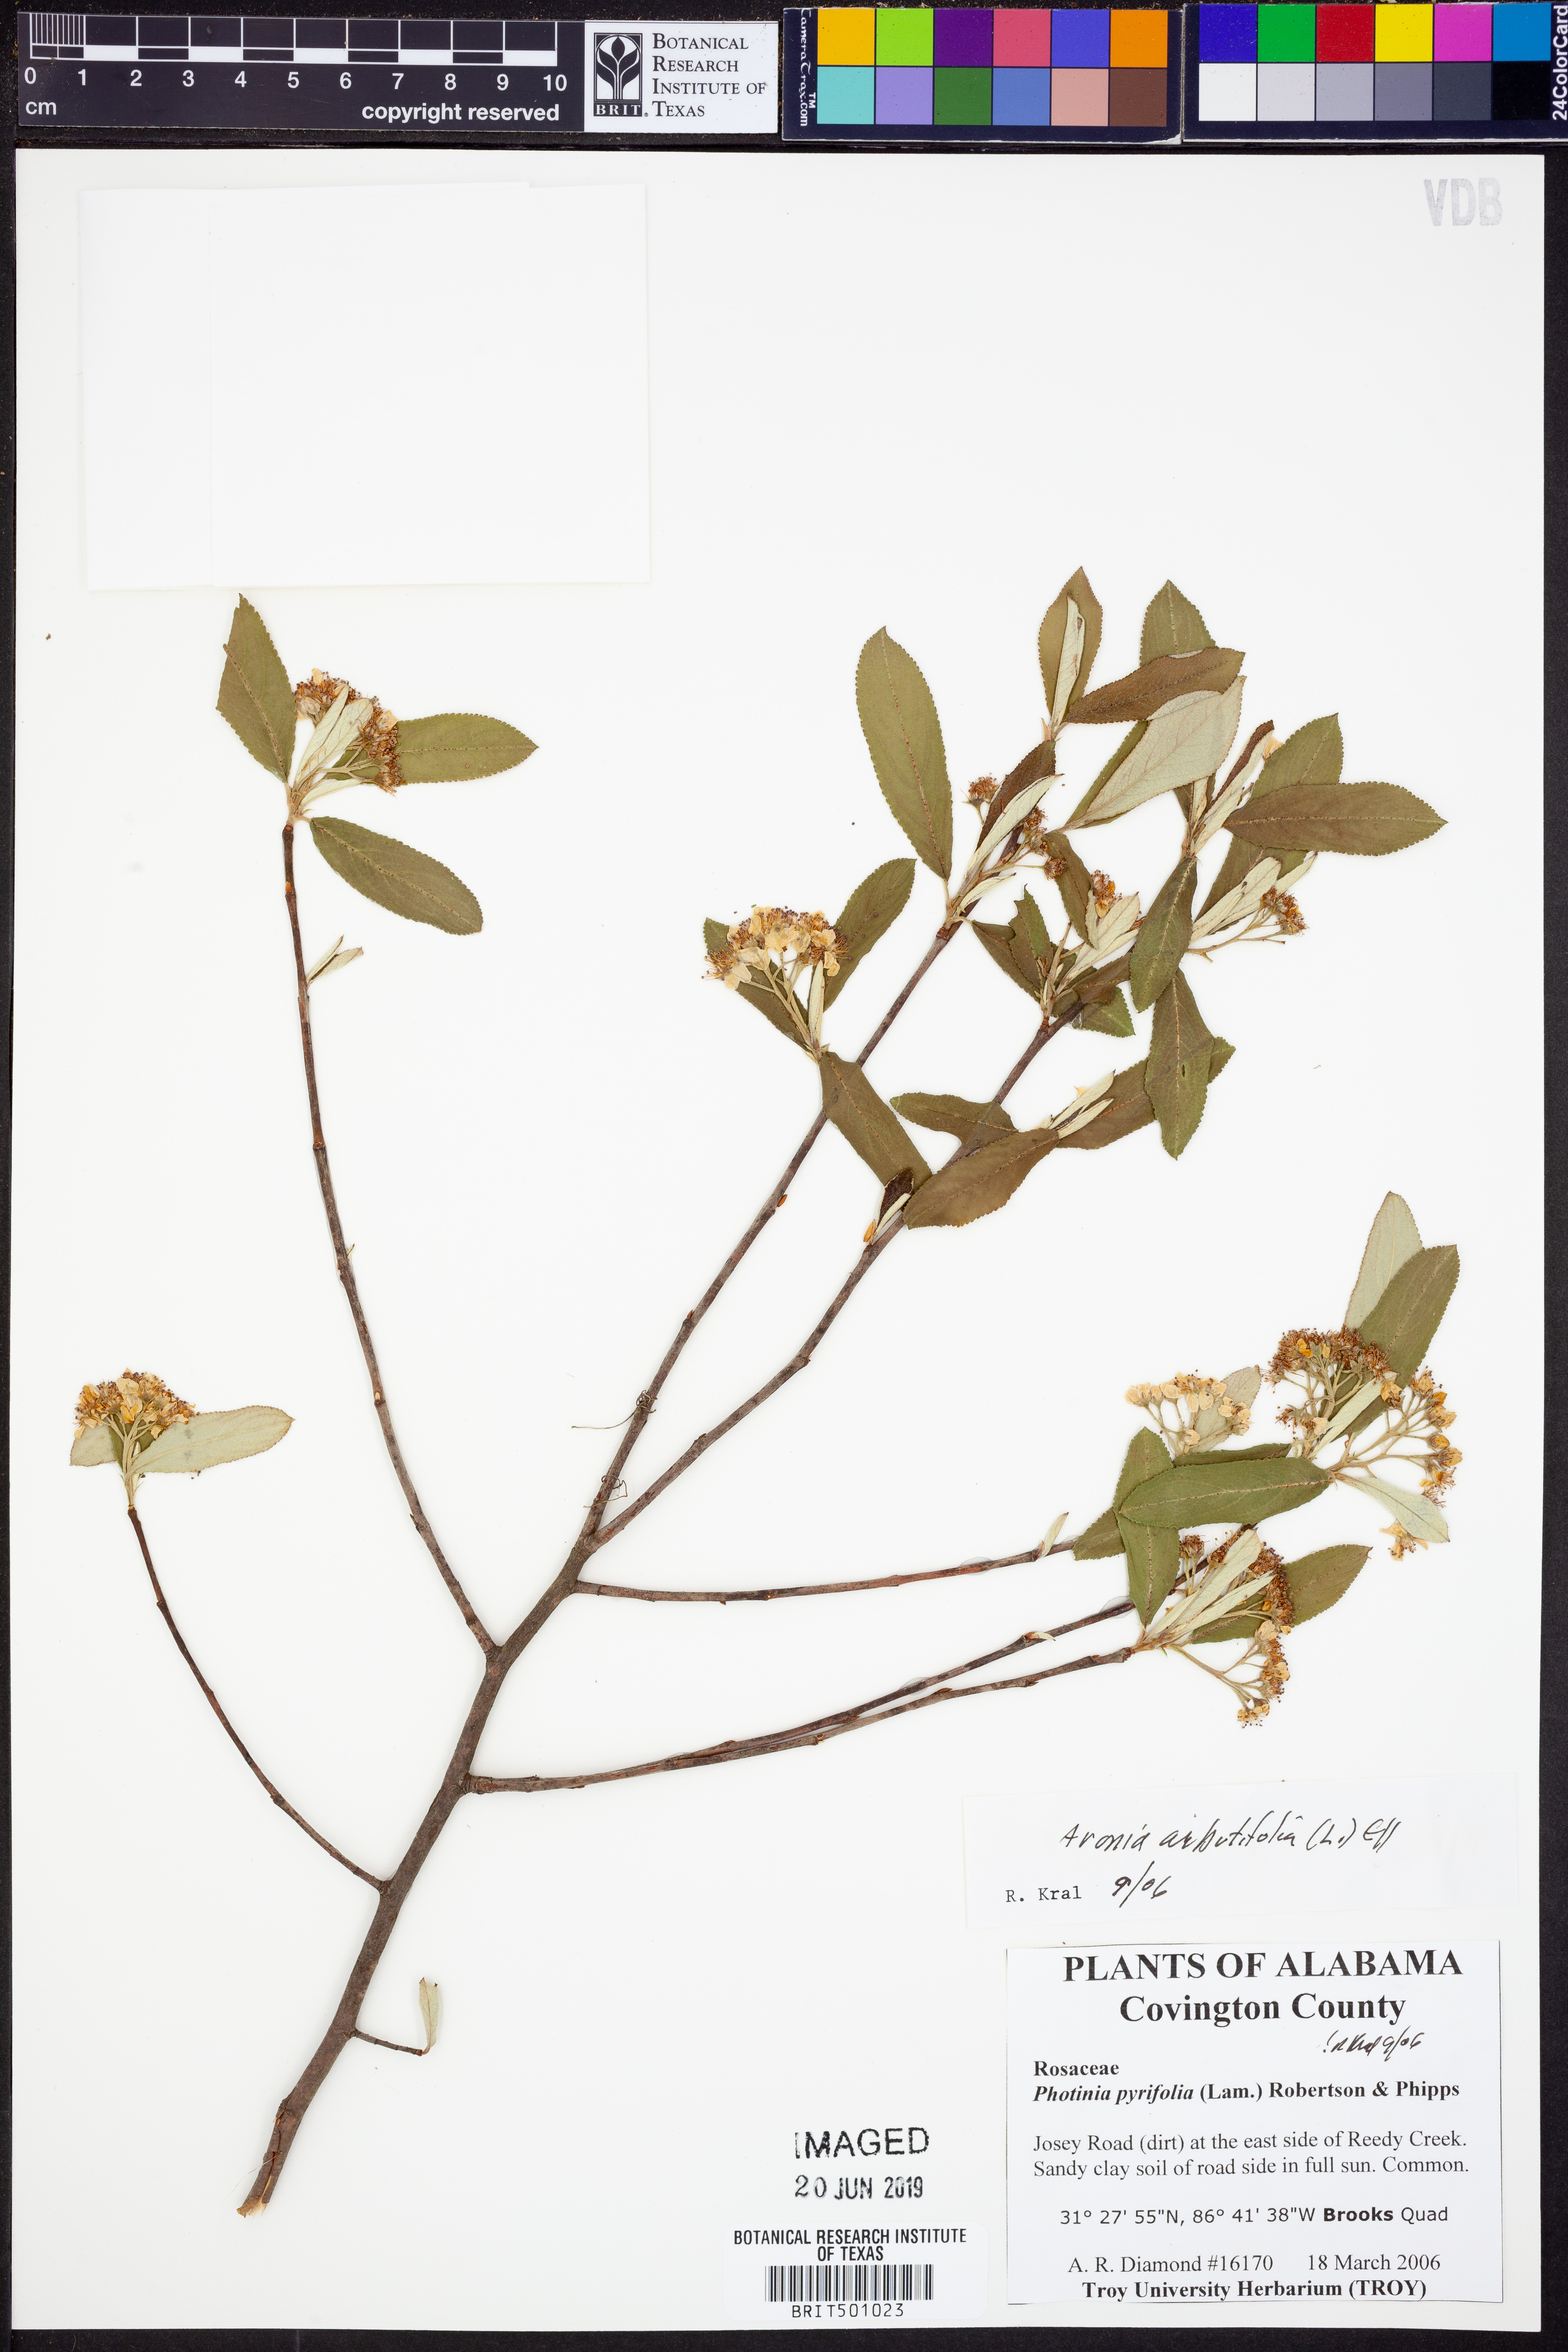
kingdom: Plantae
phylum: Tracheophyta
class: Magnoliopsida
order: Rosales
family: Rosaceae
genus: Aronia
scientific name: Aronia arbutifolia
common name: Red chokeberry
